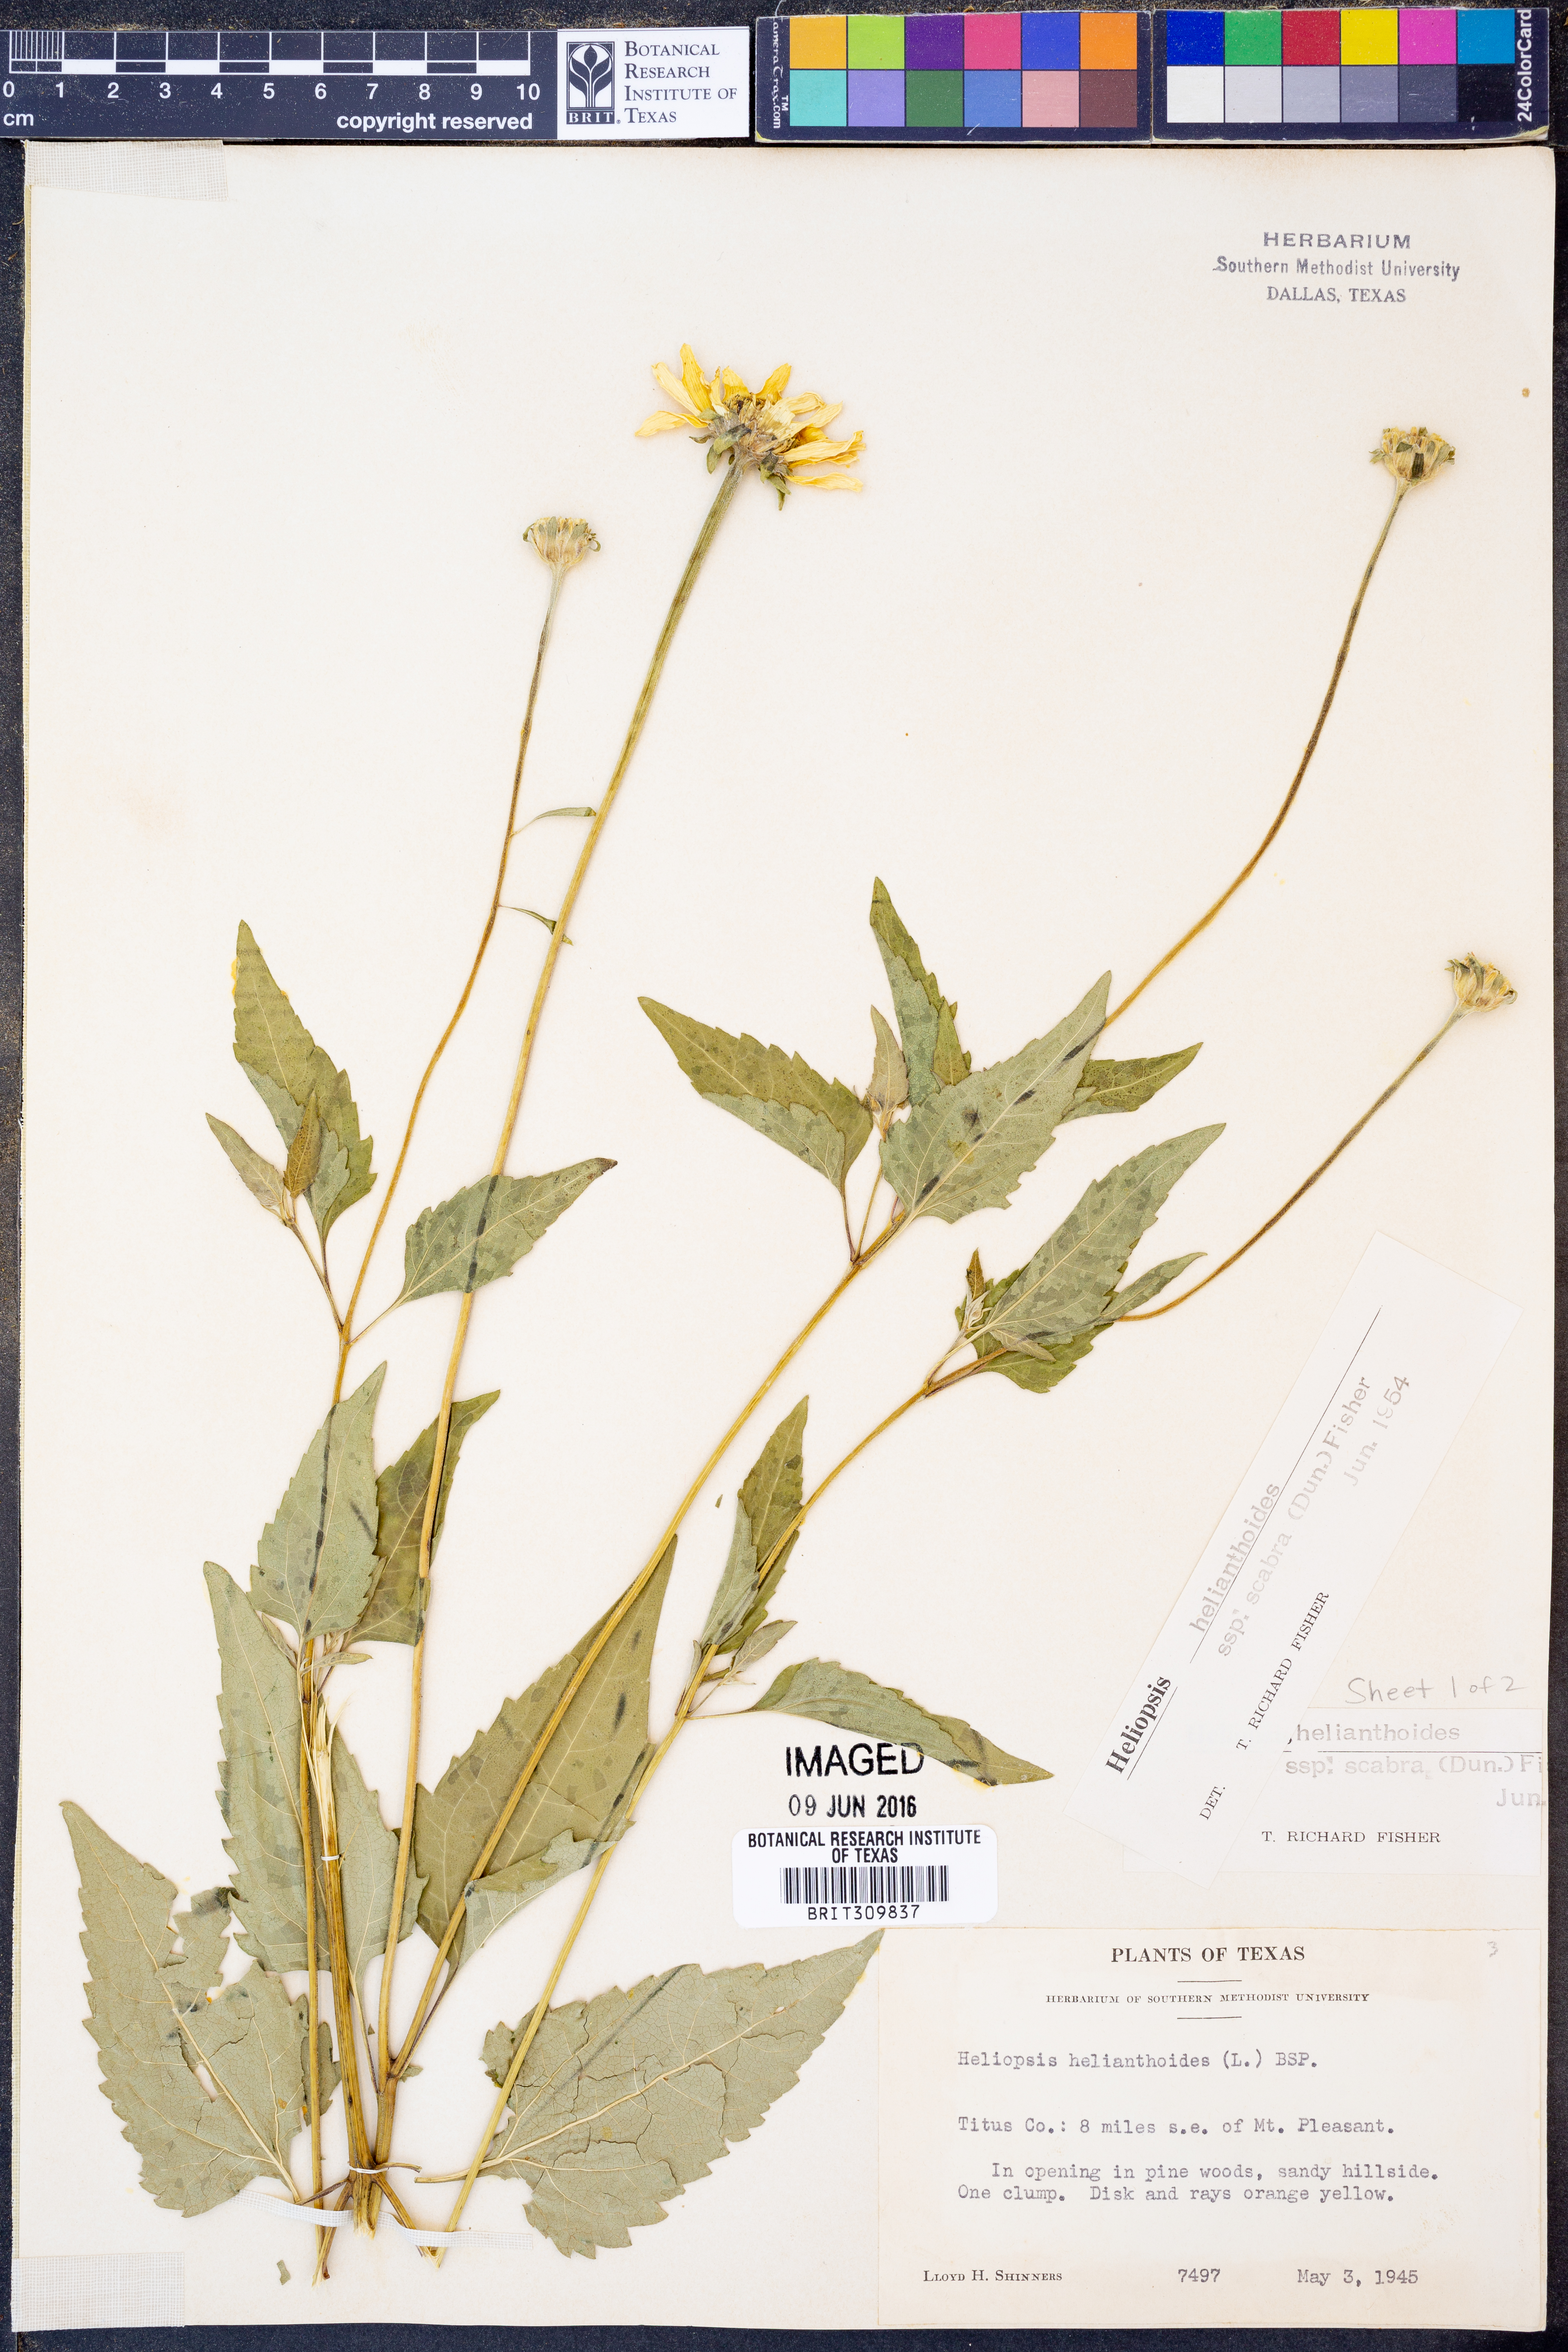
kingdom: Plantae
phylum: Tracheophyta
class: Magnoliopsida
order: Asterales
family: Asteraceae
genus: Heliopsis
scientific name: Heliopsis helianthoides
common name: False sunflower
